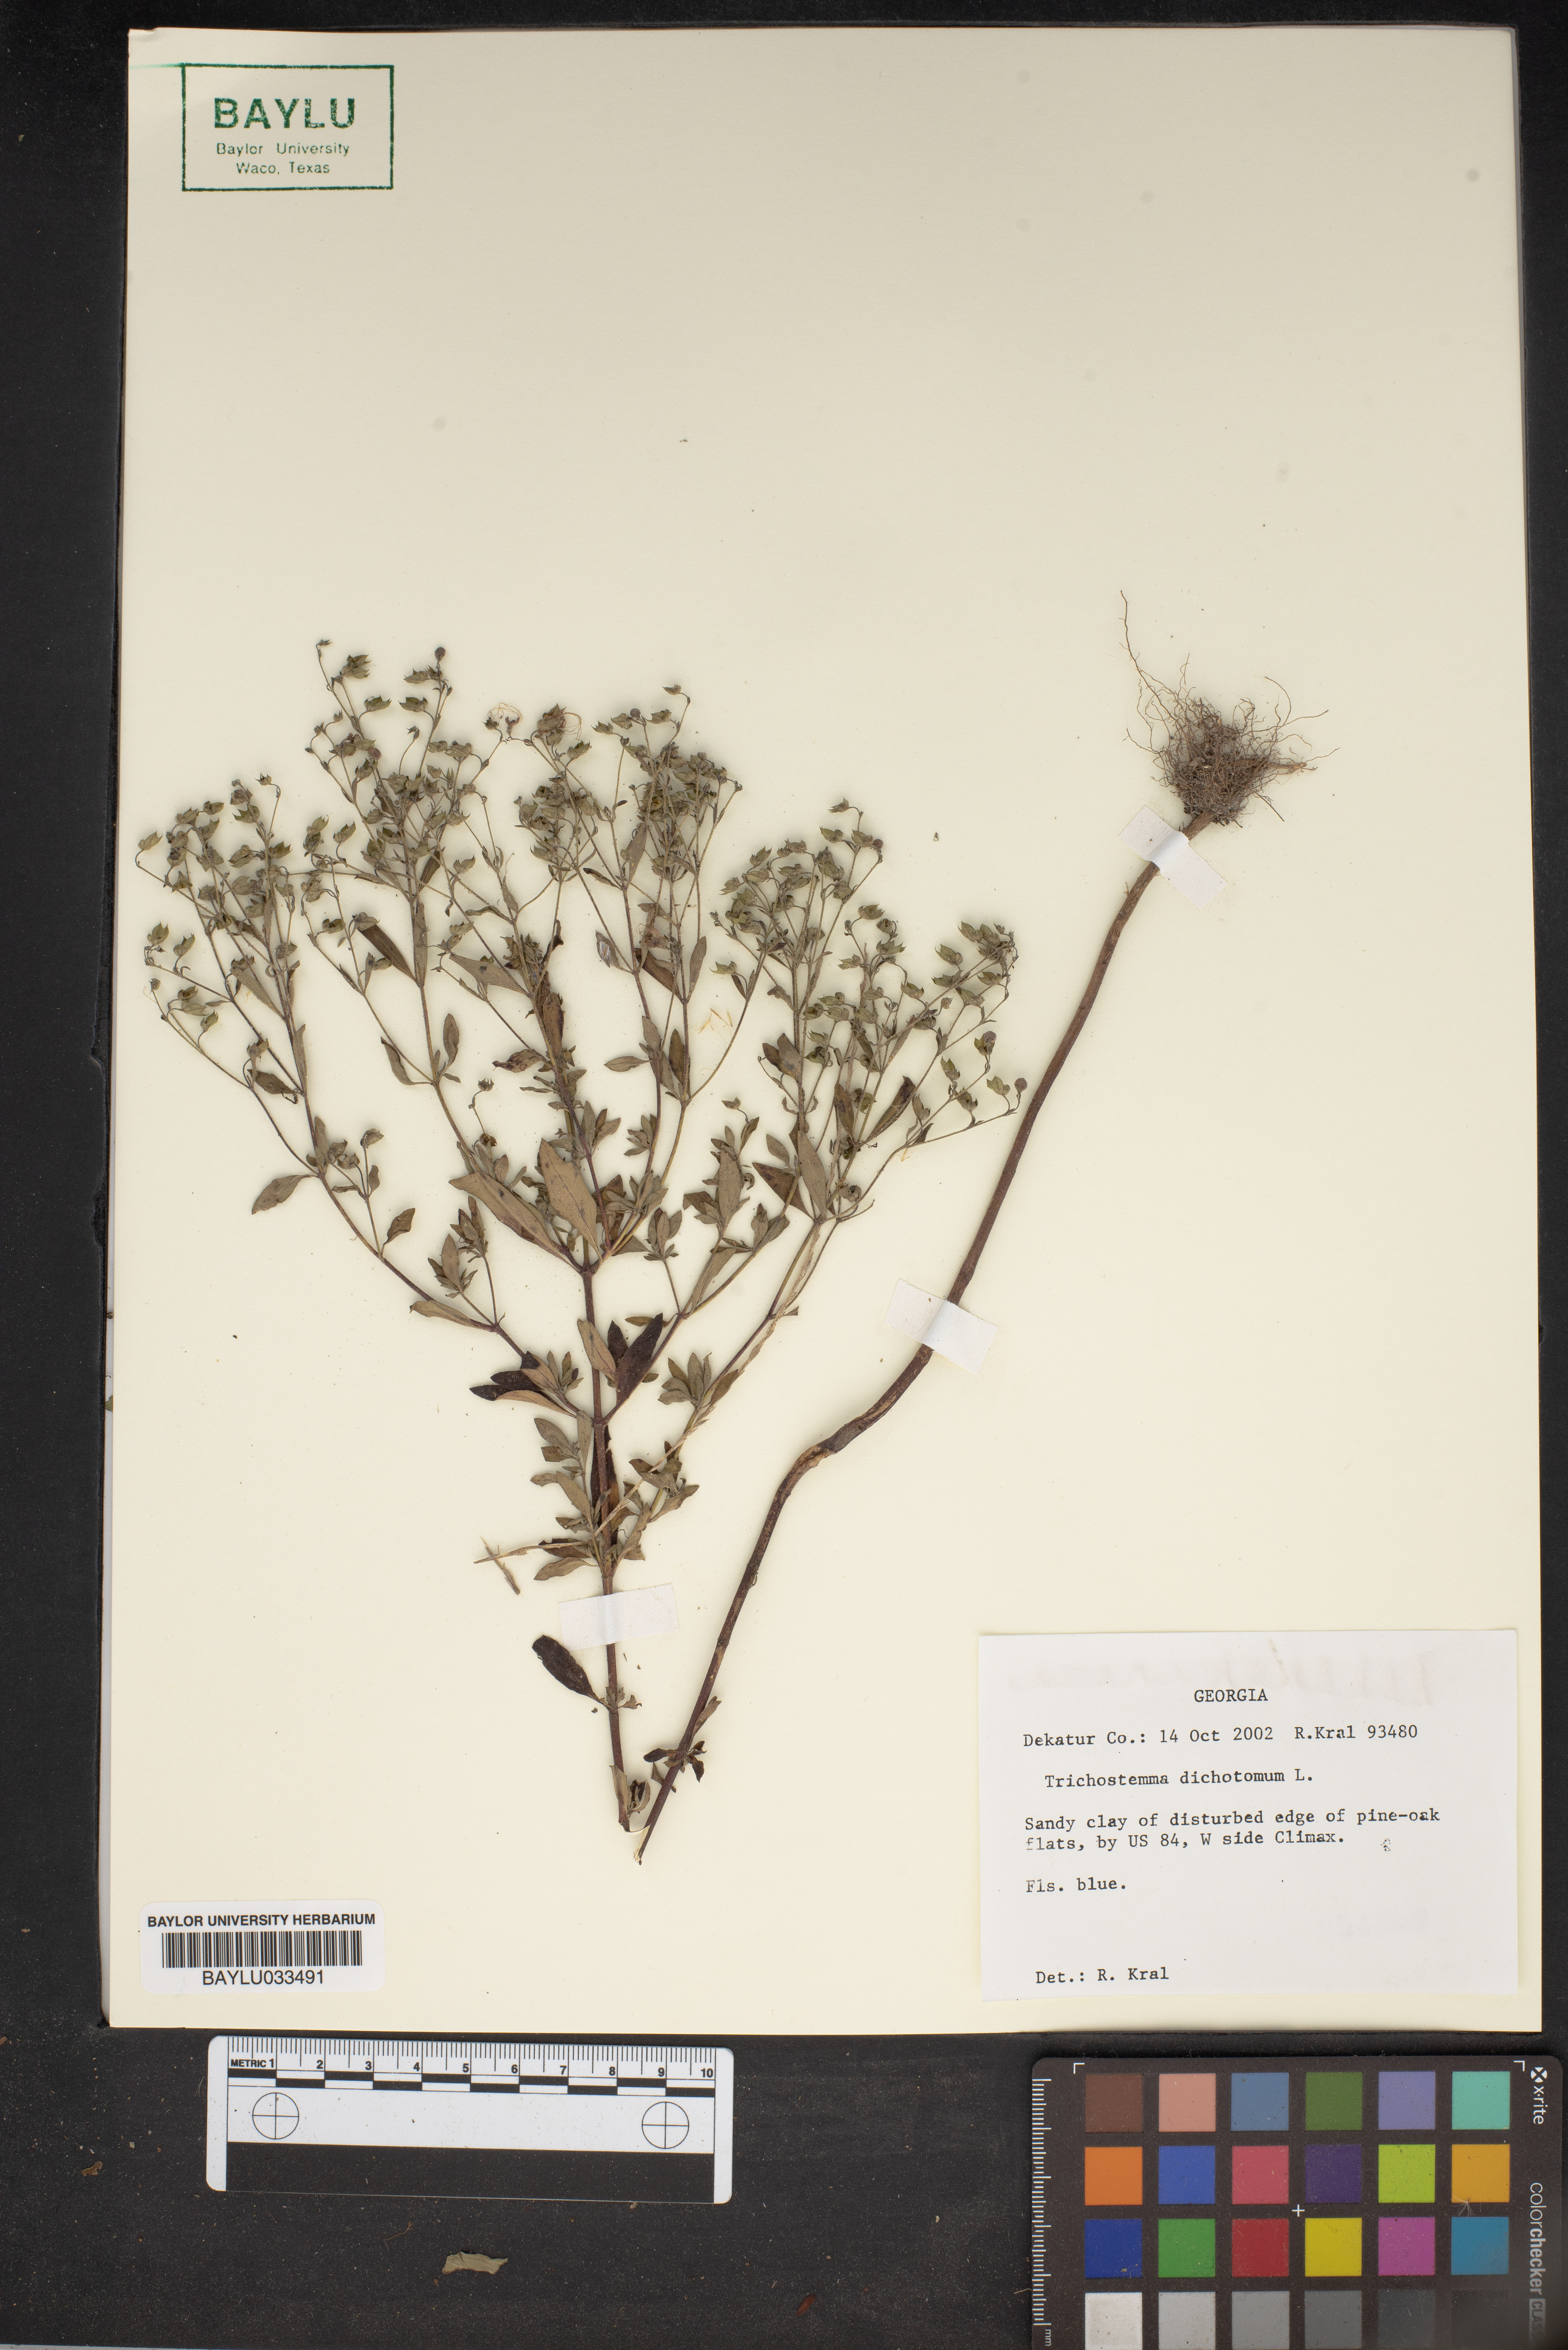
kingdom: Plantae
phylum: Tracheophyta
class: Magnoliopsida
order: Lamiales
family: Lamiaceae
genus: Trichostema
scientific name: Trichostema dichotomum
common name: Bastard pennyroyal
